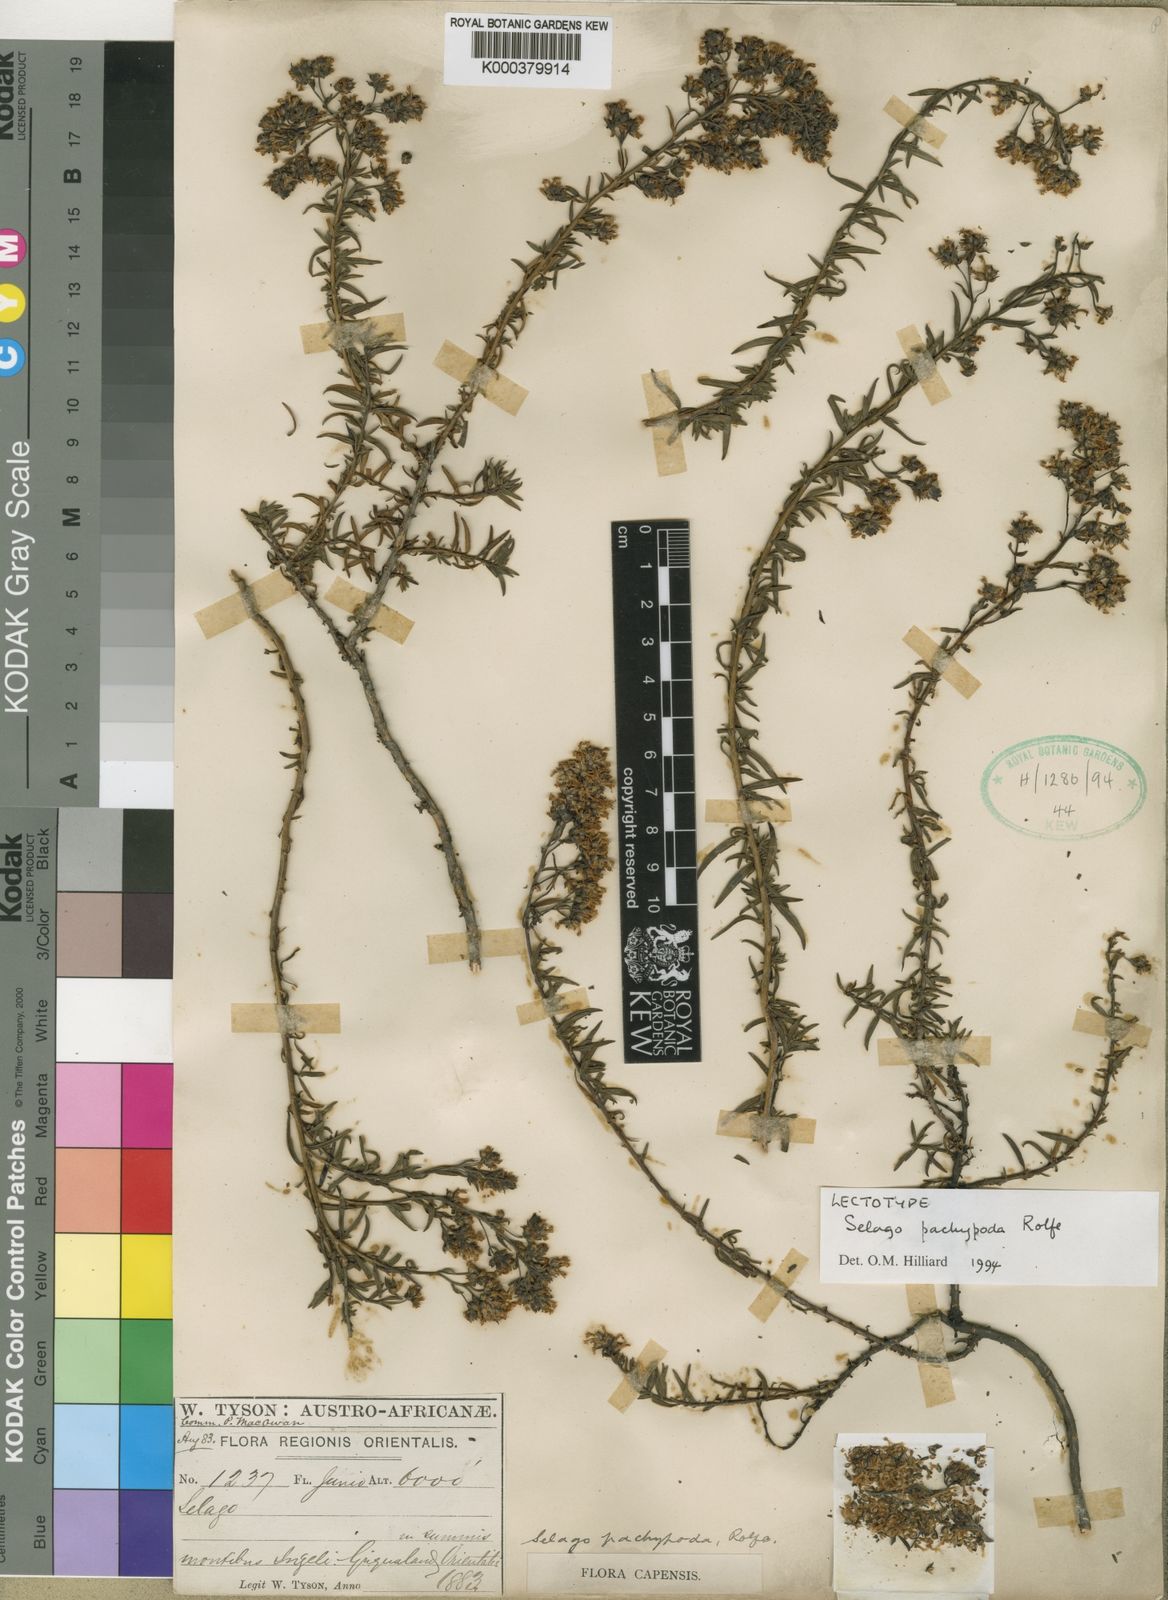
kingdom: Plantae
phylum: Tracheophyta
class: Magnoliopsida
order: Lamiales
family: Scrophulariaceae
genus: Selago
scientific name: Selago pachypoda
